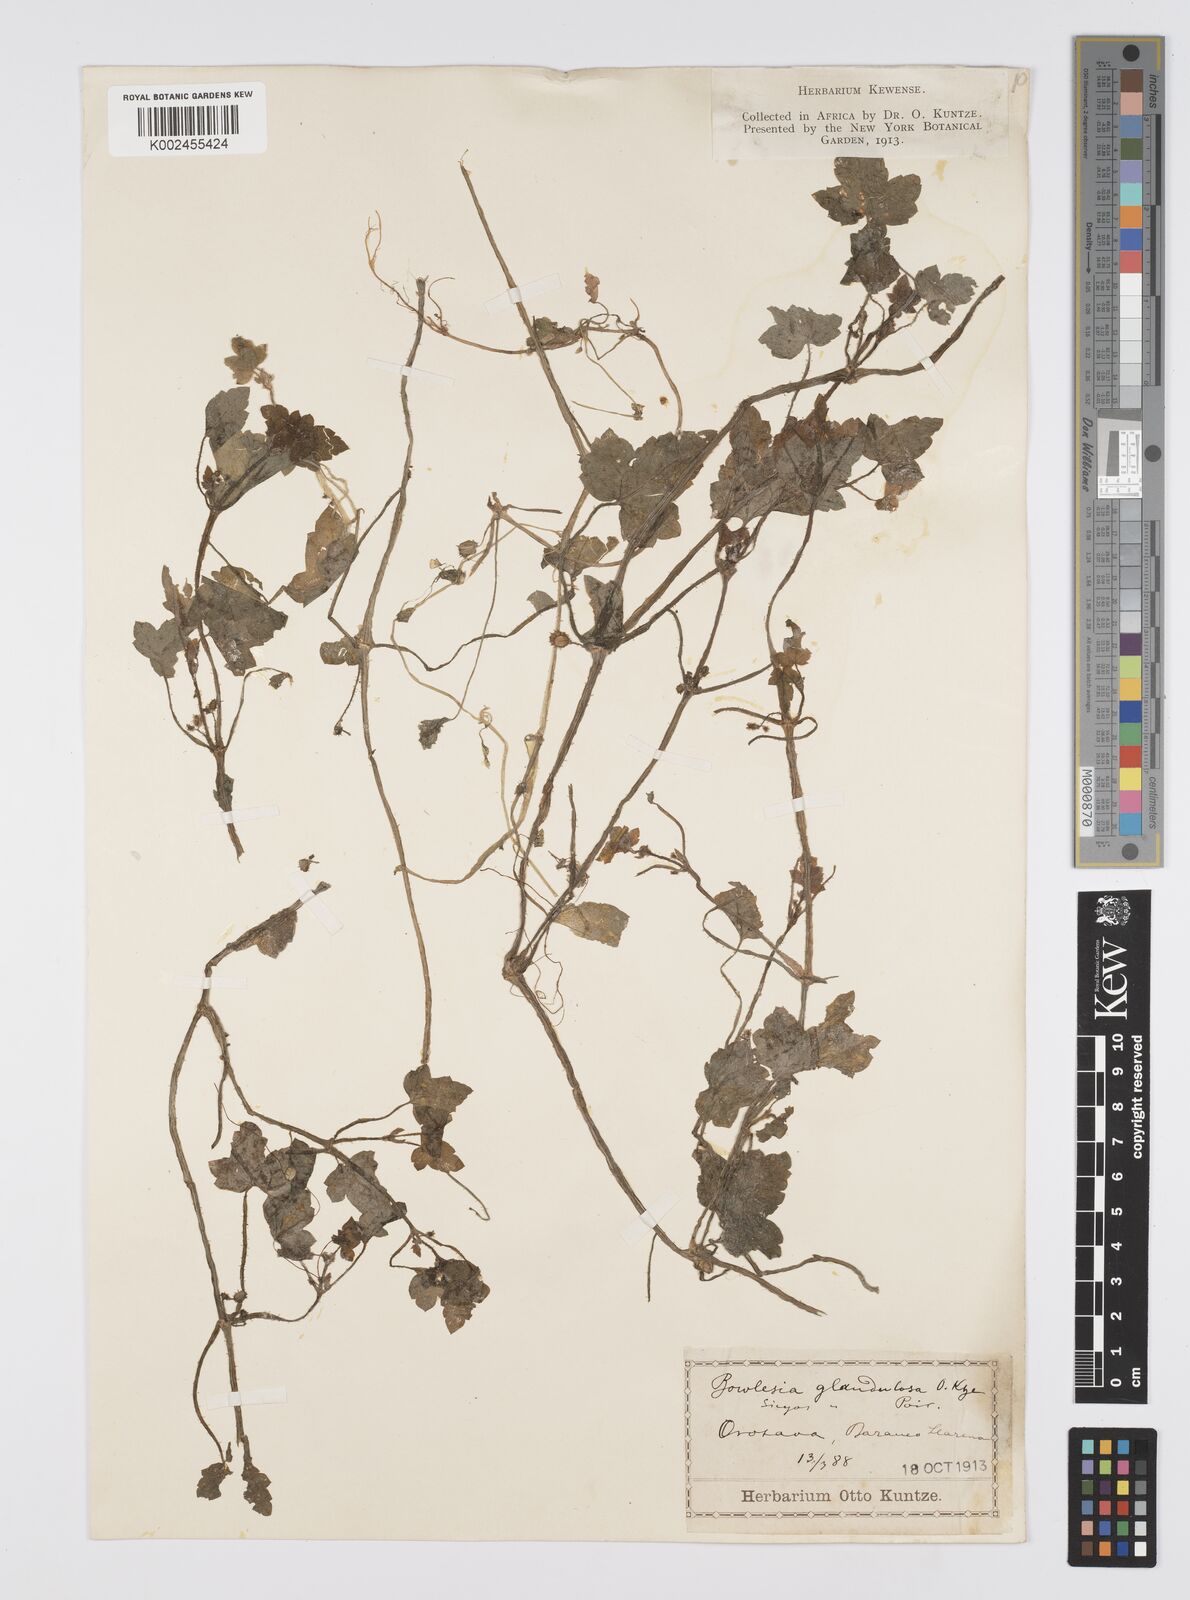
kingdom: Plantae
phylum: Tracheophyta
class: Magnoliopsida
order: Apiales
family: Apiaceae
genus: Drusa
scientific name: Drusa glandulosa
